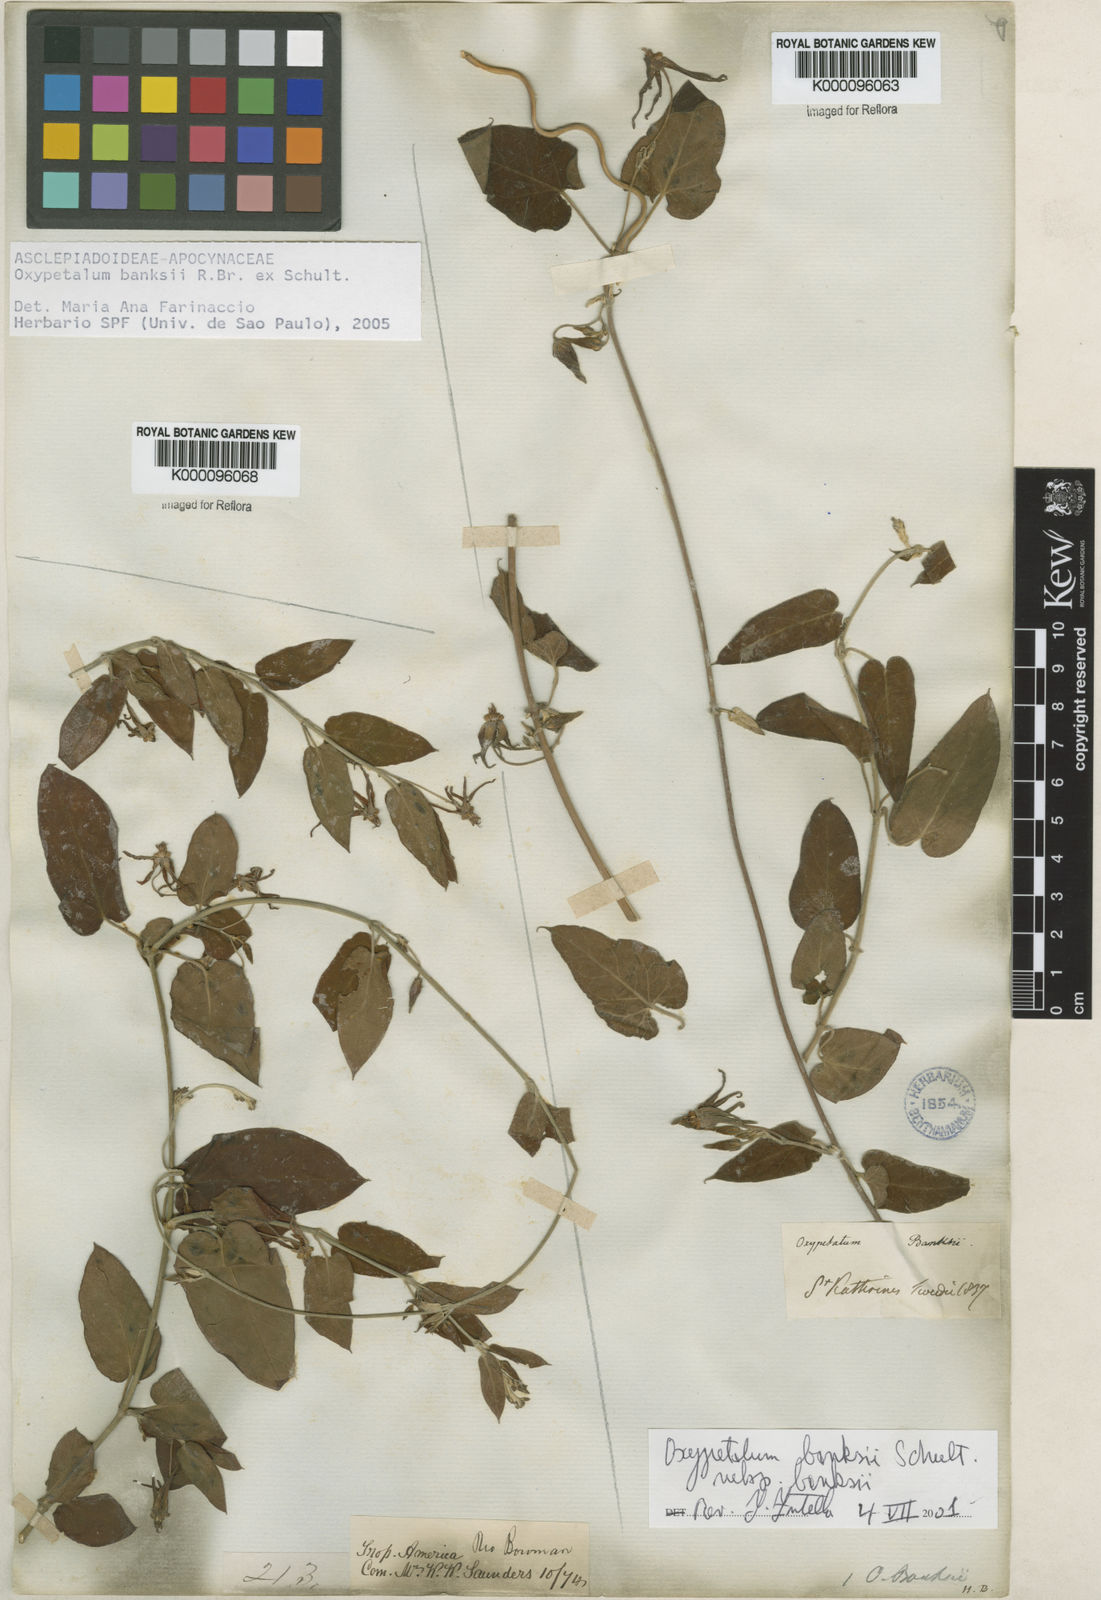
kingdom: Plantae
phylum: Tracheophyta
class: Magnoliopsida
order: Gentianales
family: Apocynaceae
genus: Oxypetalum
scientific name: Oxypetalum banksii
